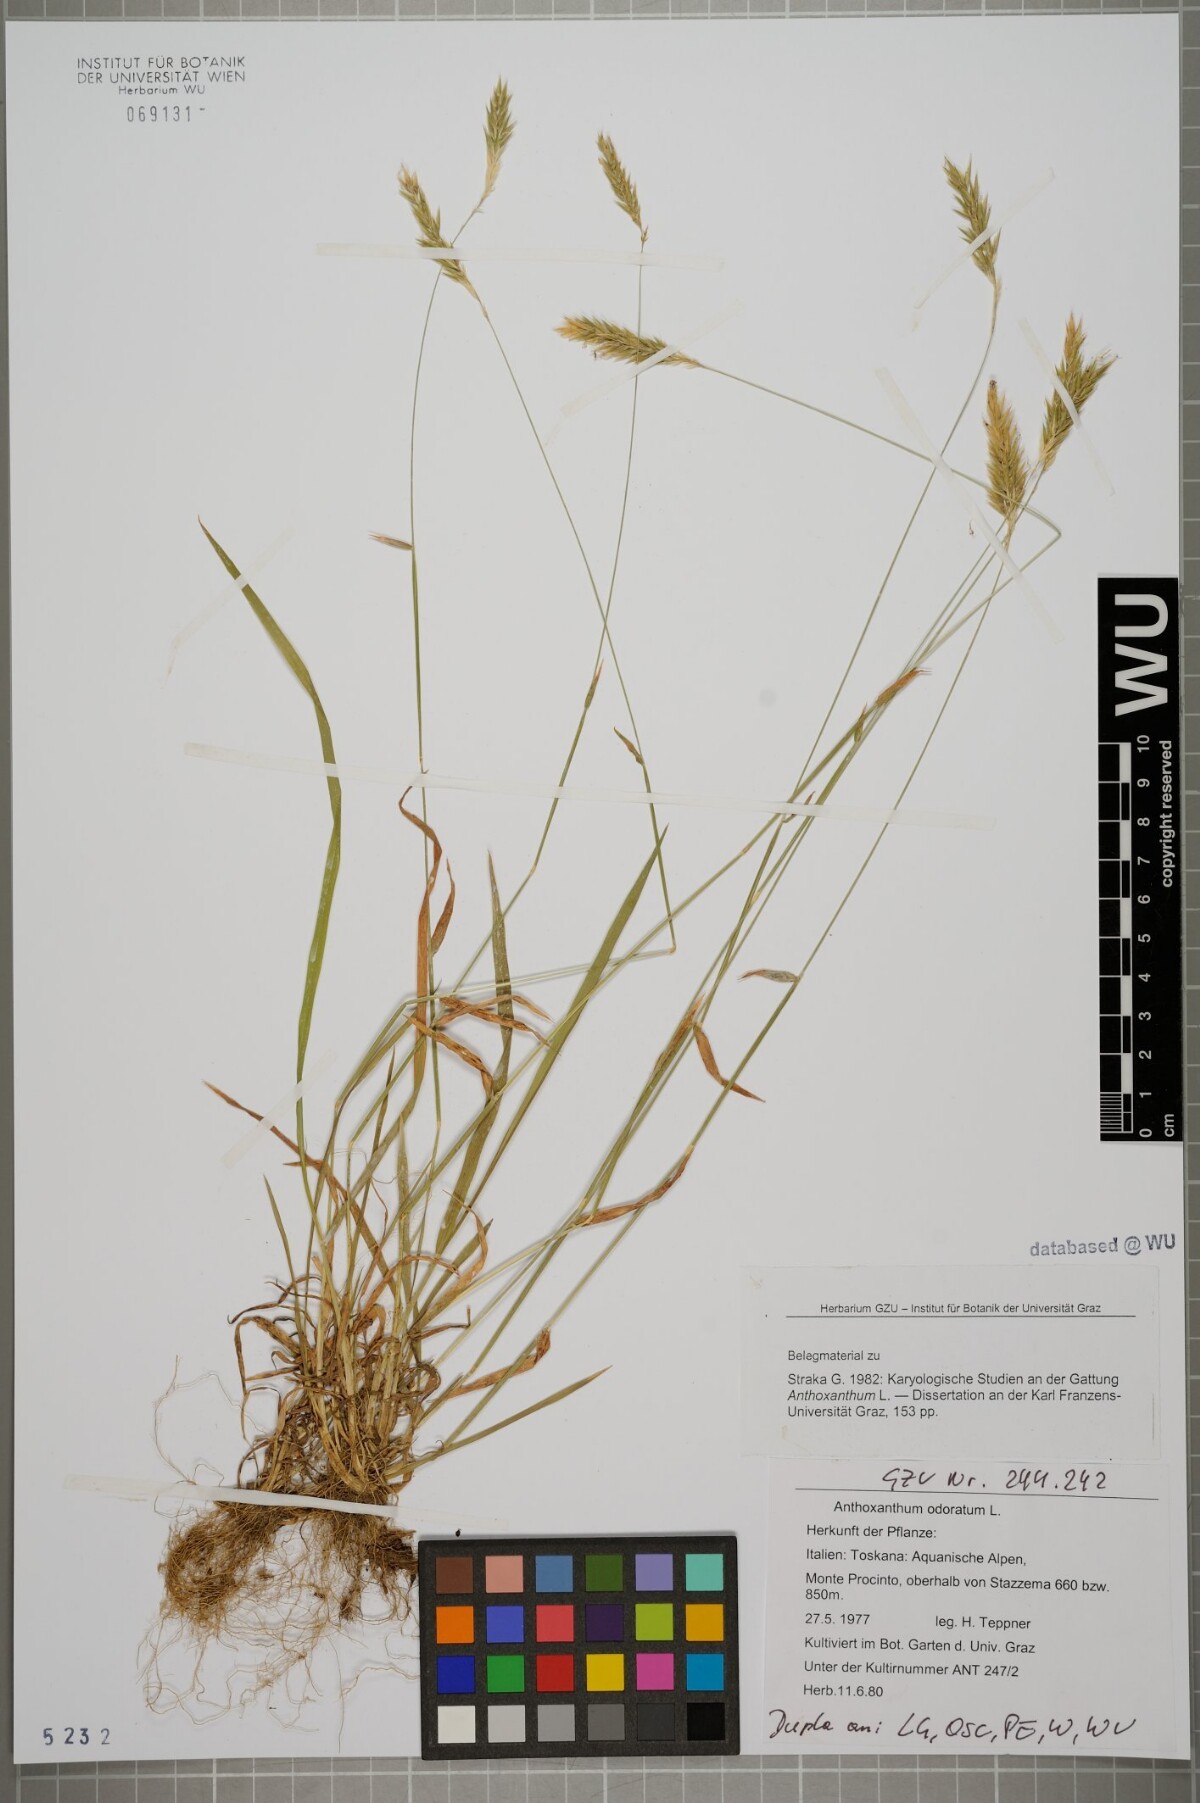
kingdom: Plantae
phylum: Tracheophyta
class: Liliopsida
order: Poales
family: Poaceae
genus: Anthoxanthum
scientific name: Anthoxanthum odoratum
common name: Sweet vernalgrass
